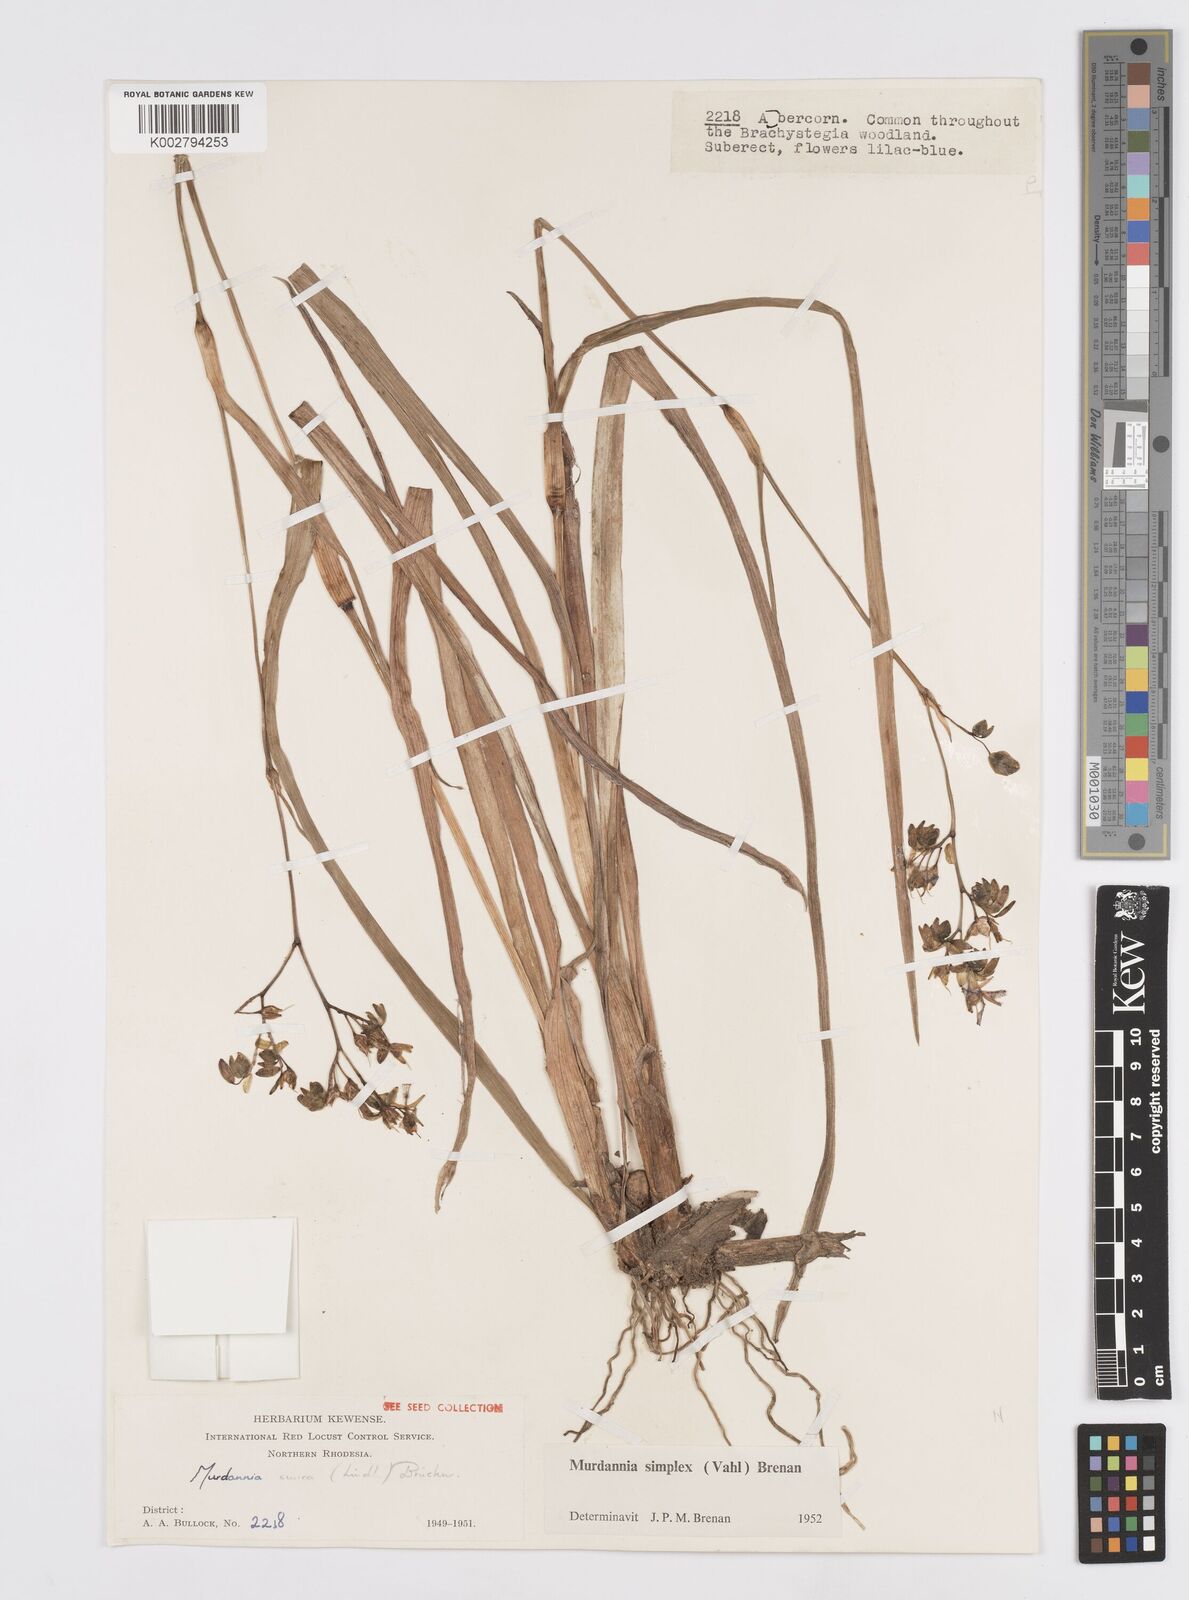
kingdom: Plantae
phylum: Tracheophyta
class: Liliopsida
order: Commelinales
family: Commelinaceae
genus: Murdannia
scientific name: Murdannia simplex
